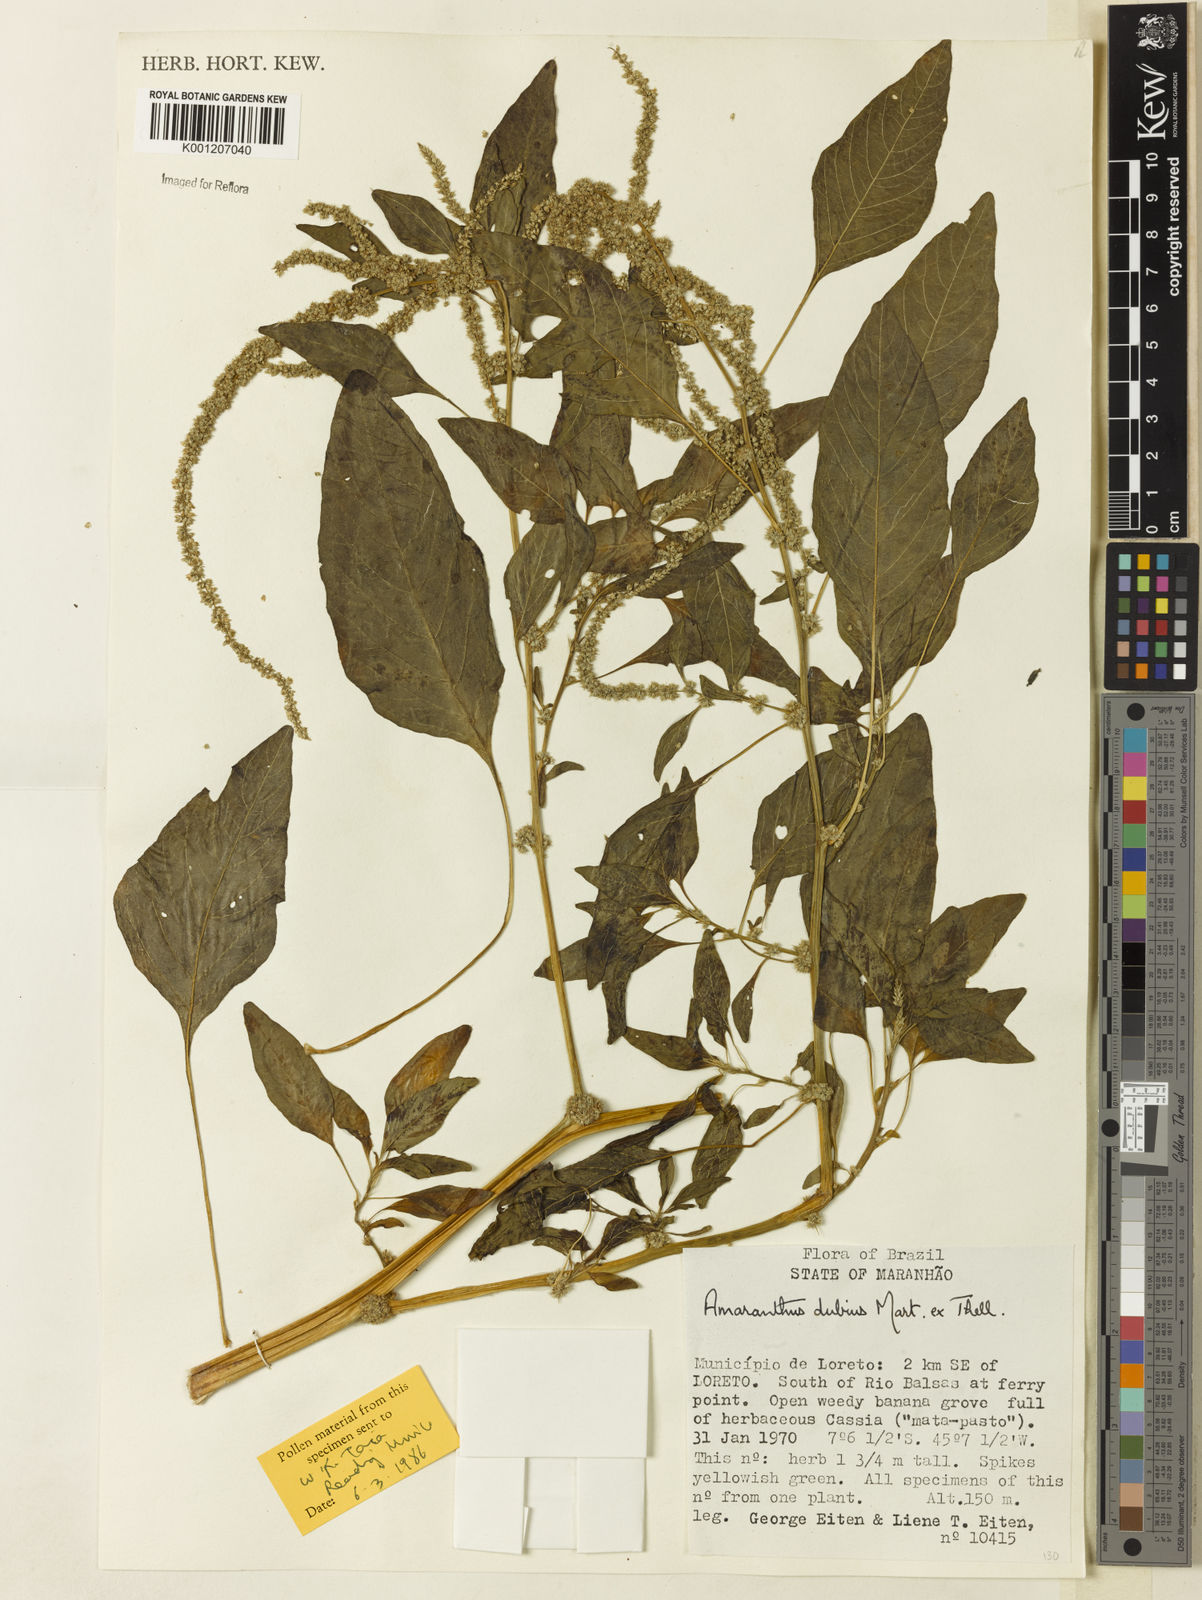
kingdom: Plantae
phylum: Tracheophyta
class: Magnoliopsida
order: Caryophyllales
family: Amaranthaceae
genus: Amaranthus
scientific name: Amaranthus dubius
